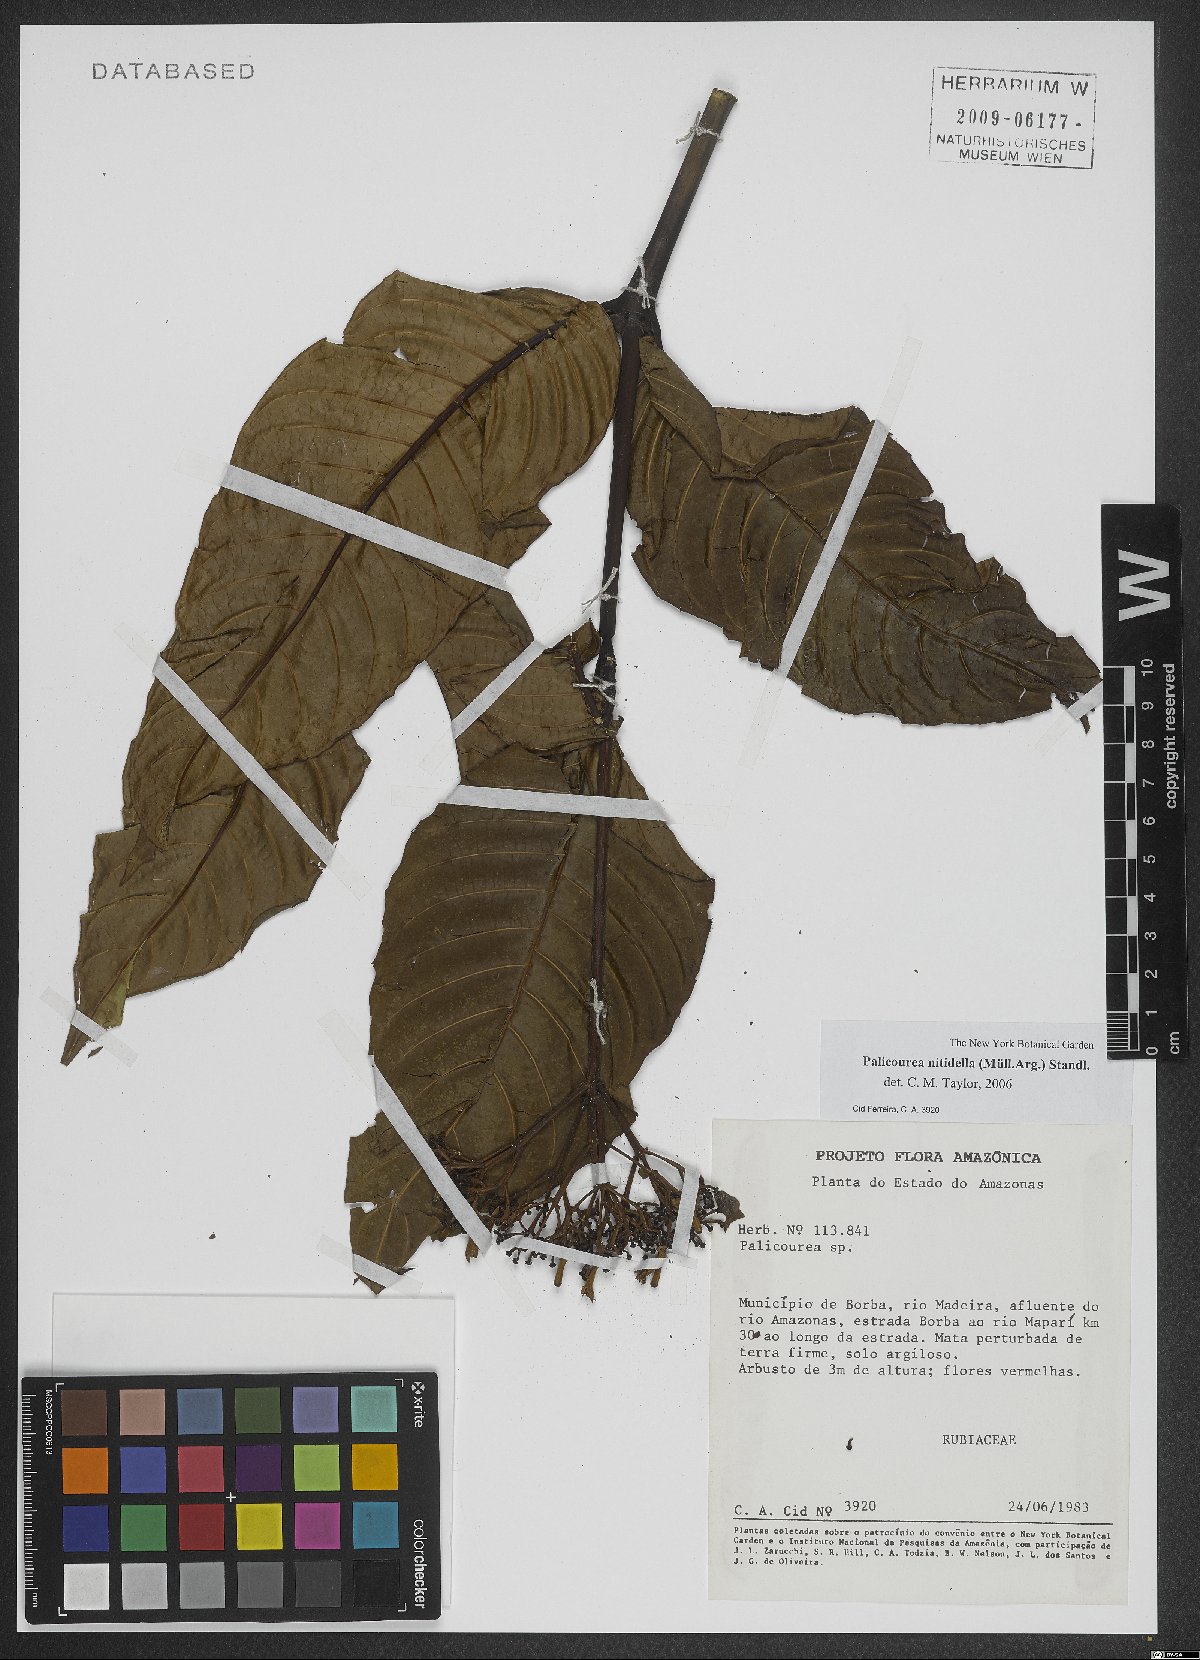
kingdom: Plantae
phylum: Tracheophyta
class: Magnoliopsida
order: Gentianales
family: Rubiaceae
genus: Palicourea
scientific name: Palicourea nitidella
